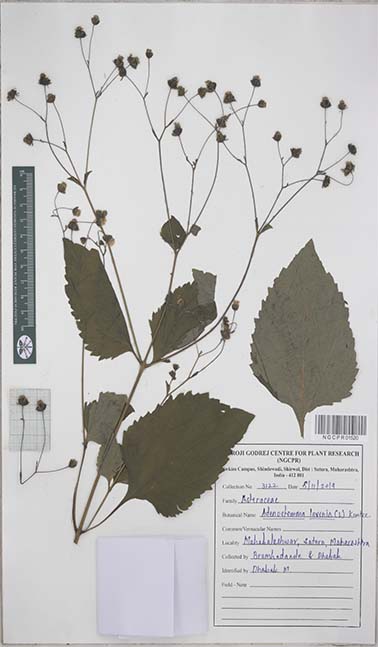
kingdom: Plantae
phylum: Tracheophyta
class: Magnoliopsida
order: Asterales
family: Asteraceae
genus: Adenostemma
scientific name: Adenostemma lavenia
